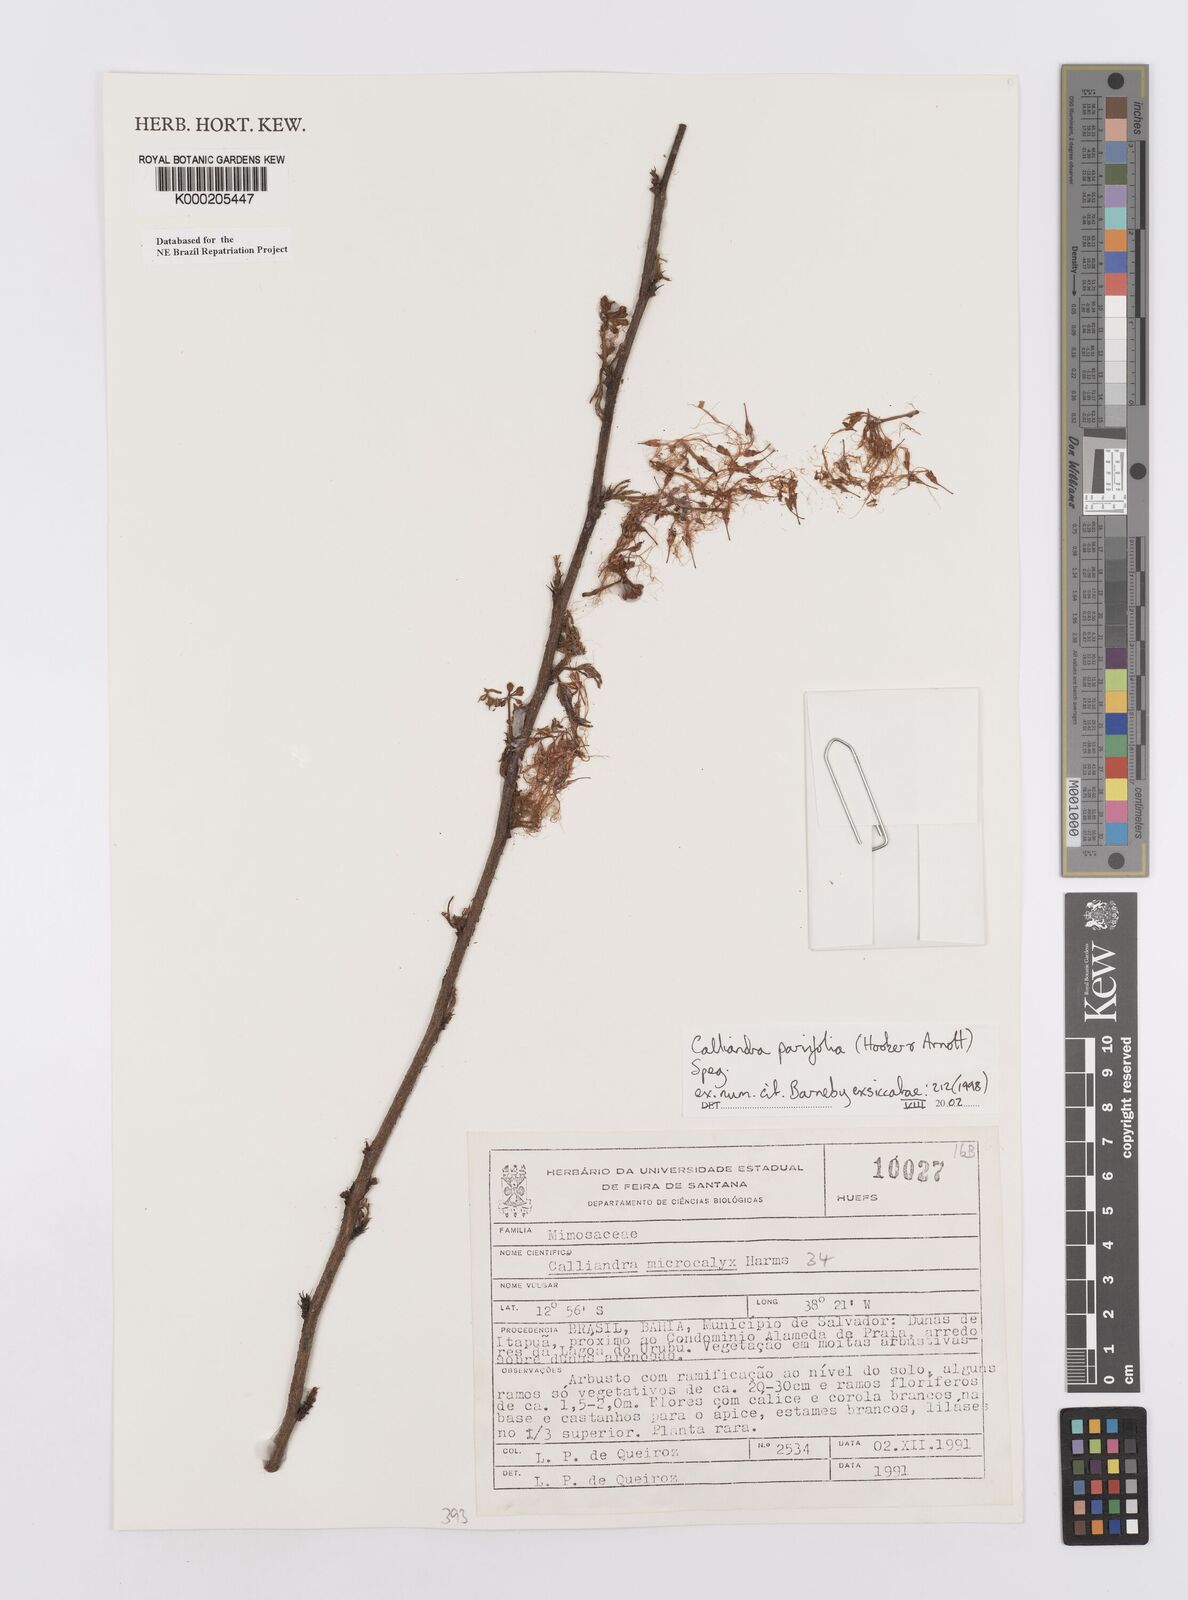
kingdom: Plantae
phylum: Tracheophyta
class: Magnoliopsida
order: Fabales
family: Fabaceae
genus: Calliandra
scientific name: Calliandra parvifolia
